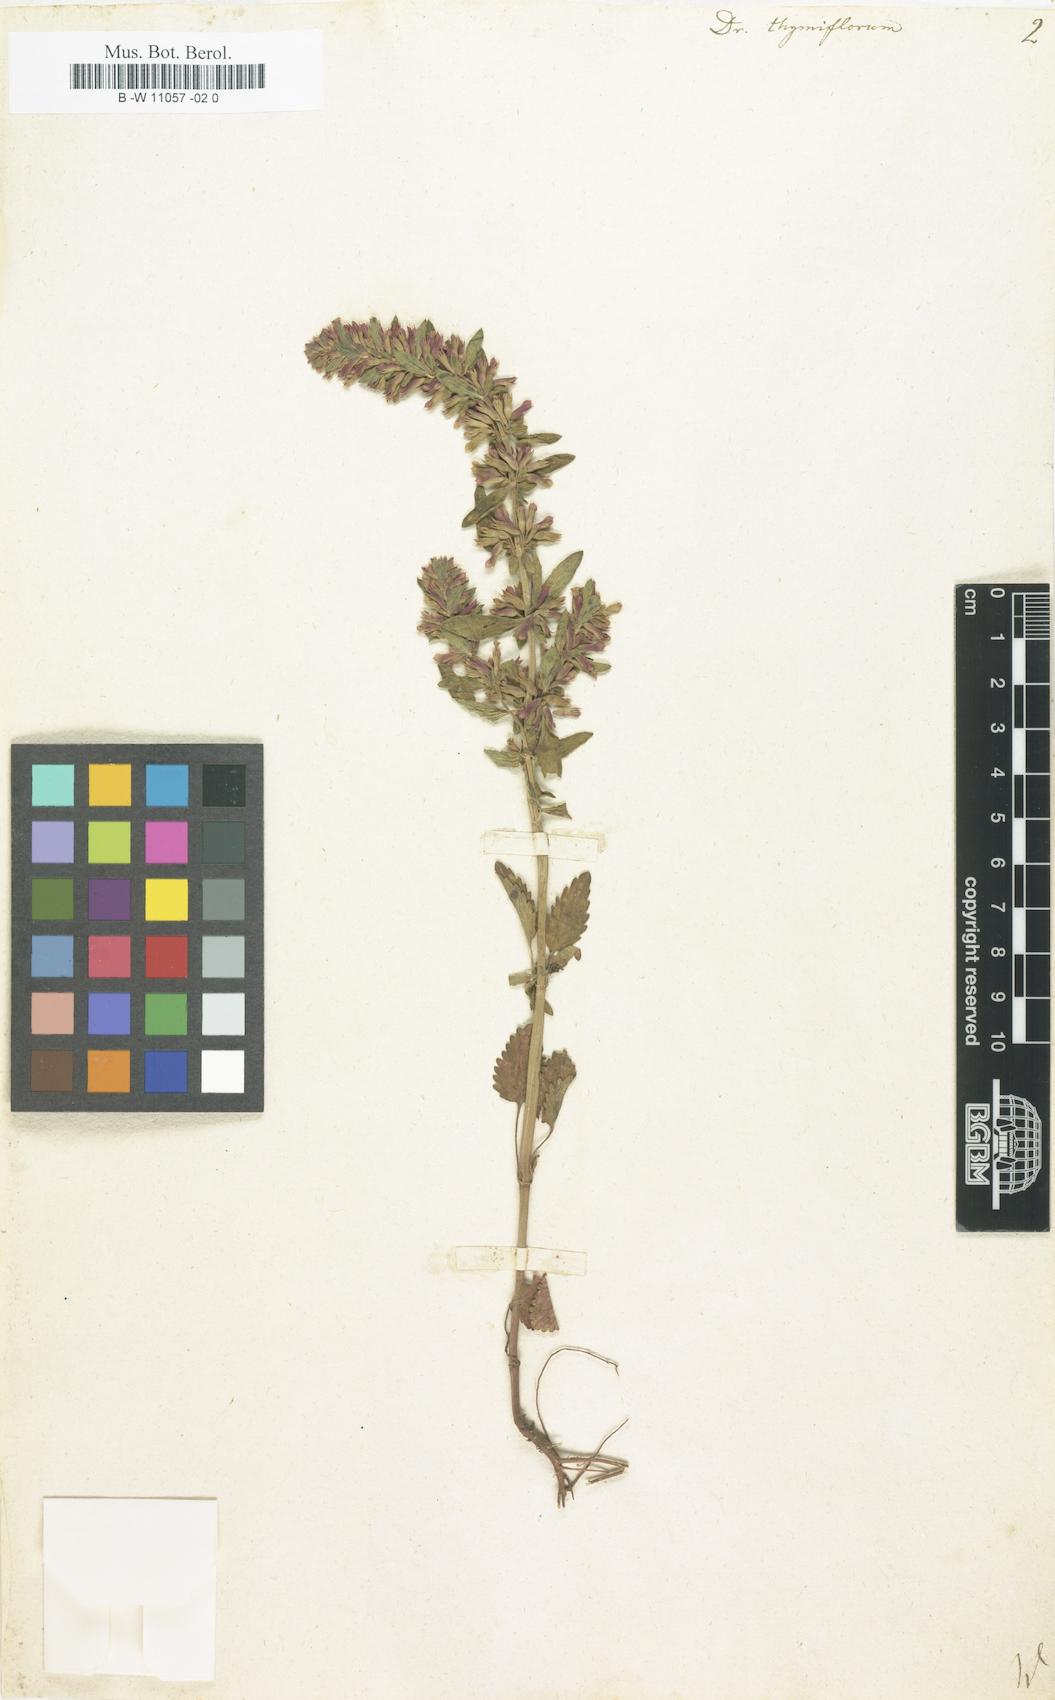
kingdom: Plantae
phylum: Tracheophyta
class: Magnoliopsida
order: Lamiales
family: Lamiaceae
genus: Dracocephalum
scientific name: Dracocephalum thymiflorum
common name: Thymeleaf dragonhead
